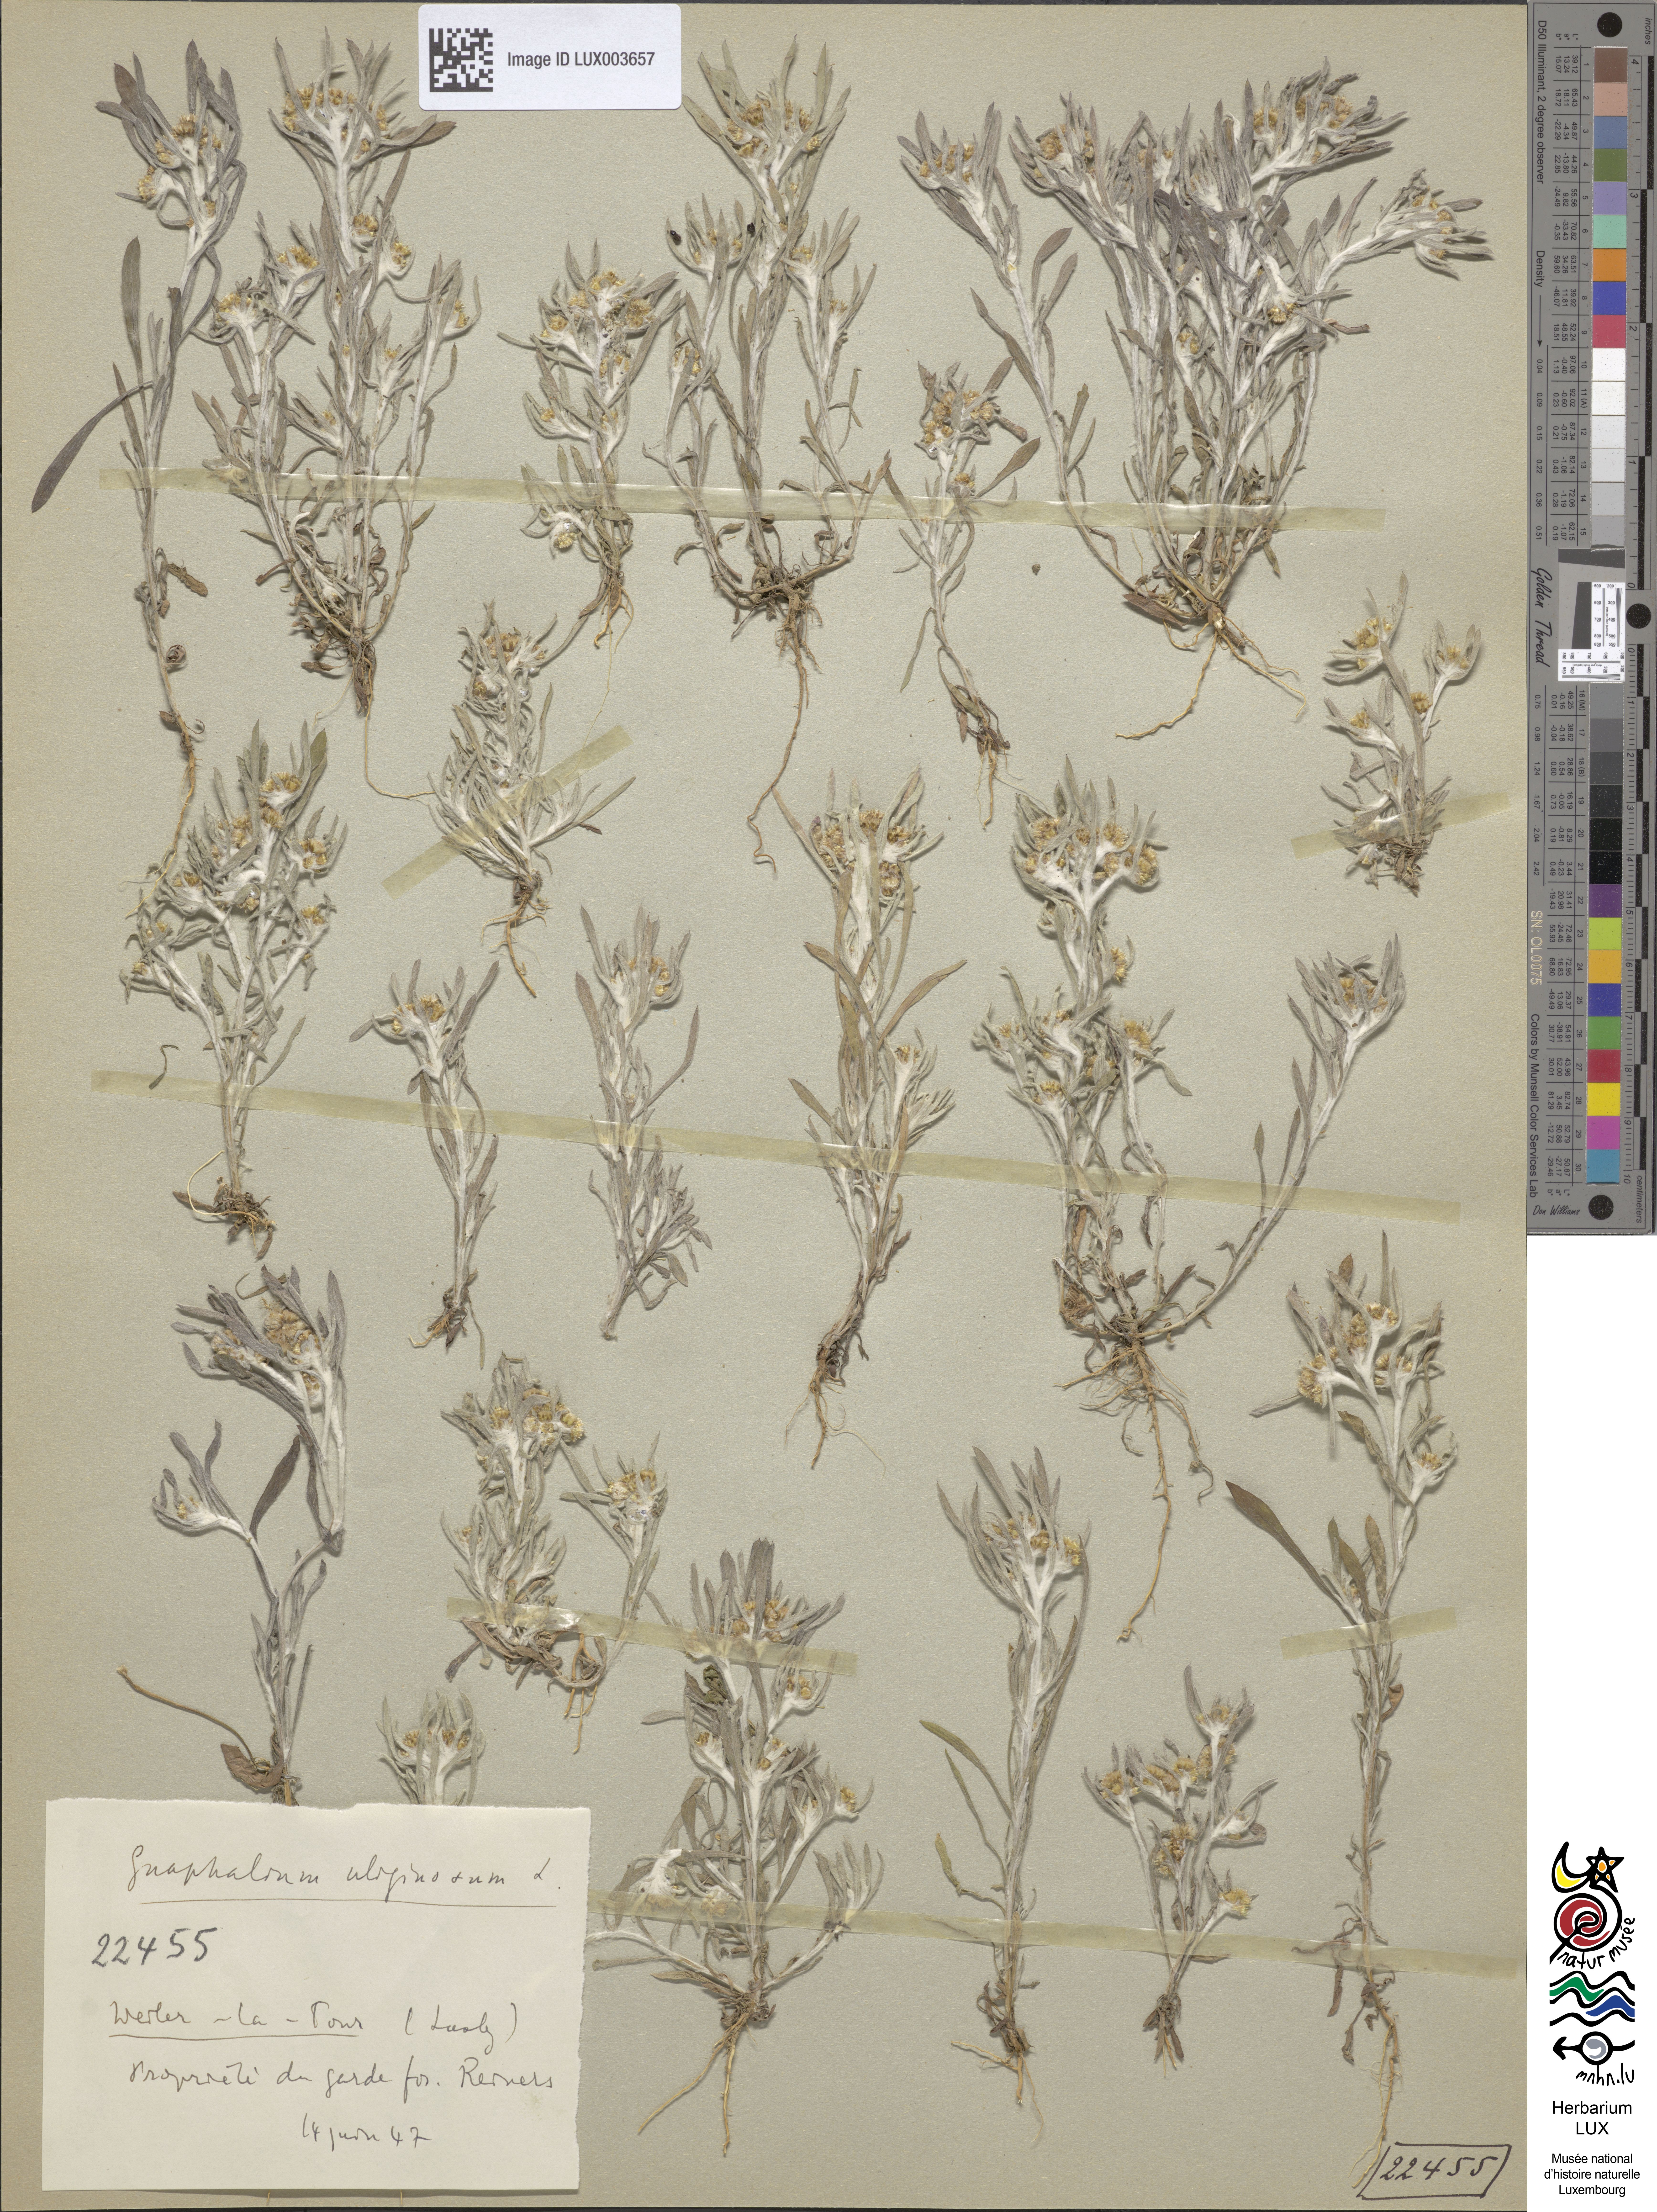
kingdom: Plantae
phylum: Tracheophyta
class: Magnoliopsida
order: Asterales
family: Asteraceae
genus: Gnaphalium
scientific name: Gnaphalium uliginosum
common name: Marsh cudweed
